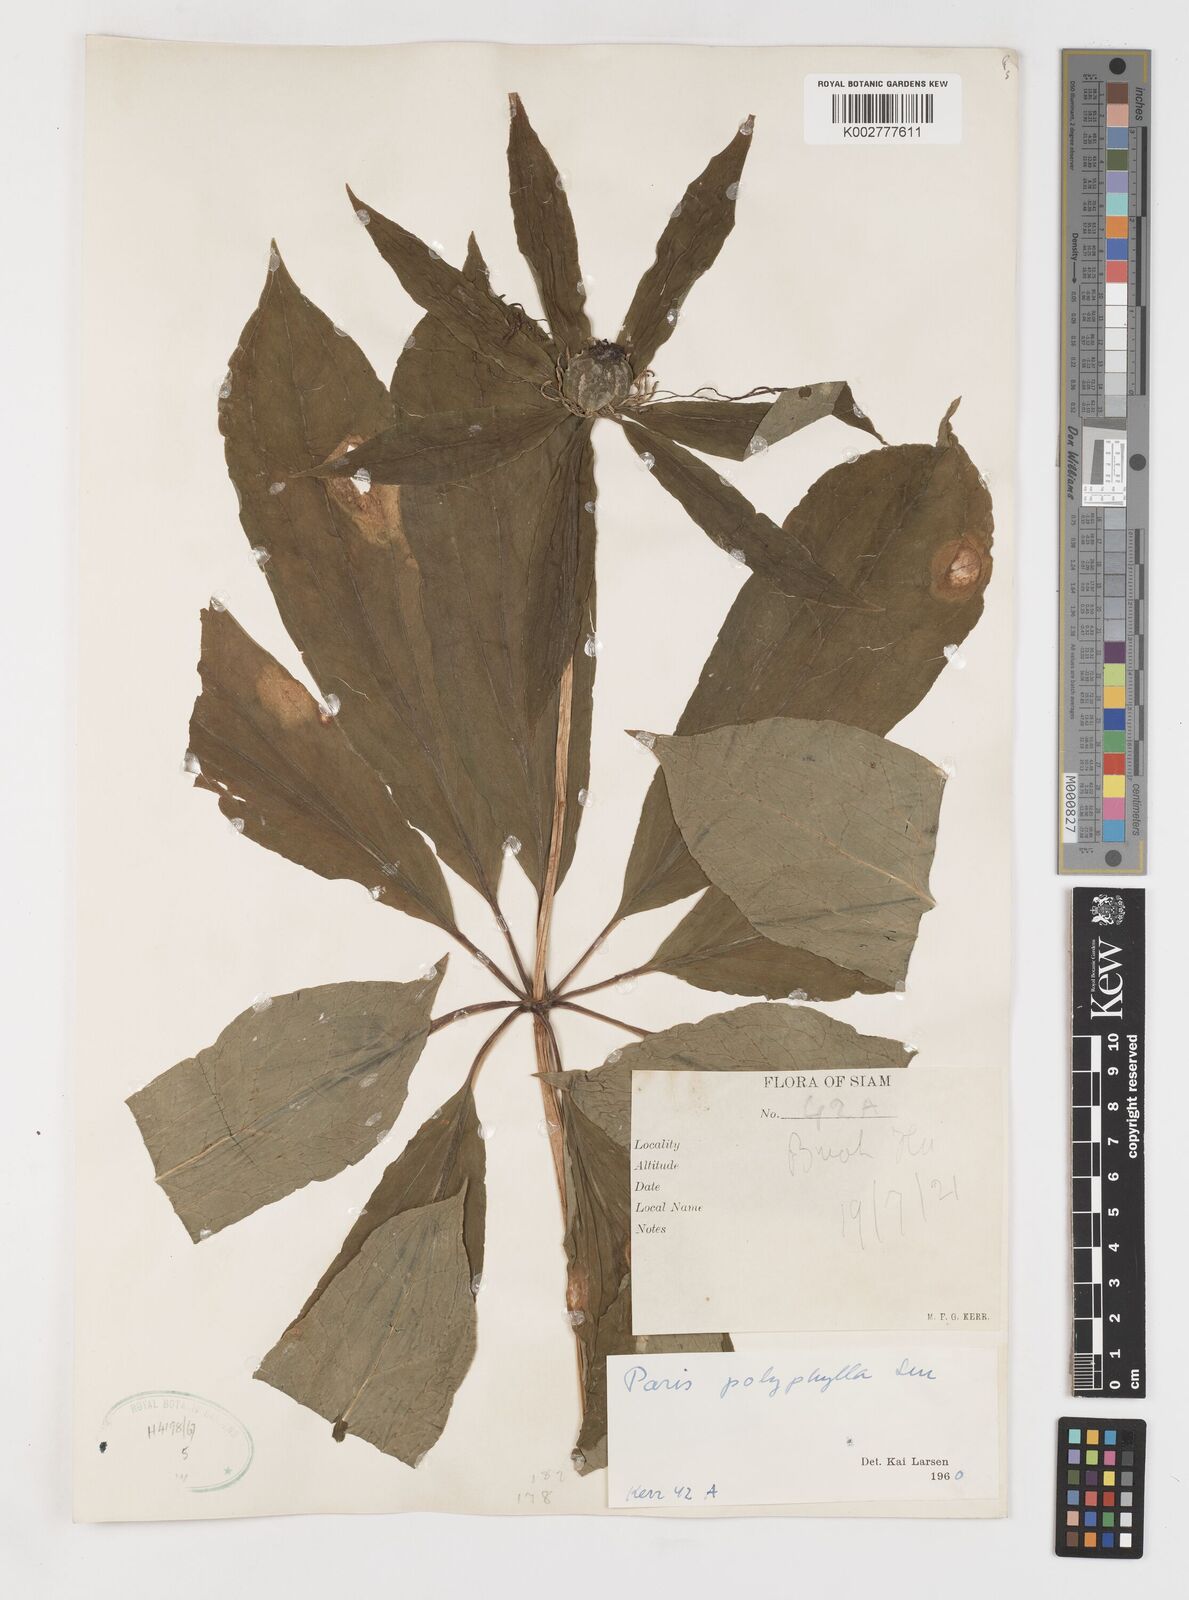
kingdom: Plantae
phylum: Tracheophyta
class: Liliopsida
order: Liliales
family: Melanthiaceae
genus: Paris
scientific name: Paris polyphylla
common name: Love apple
